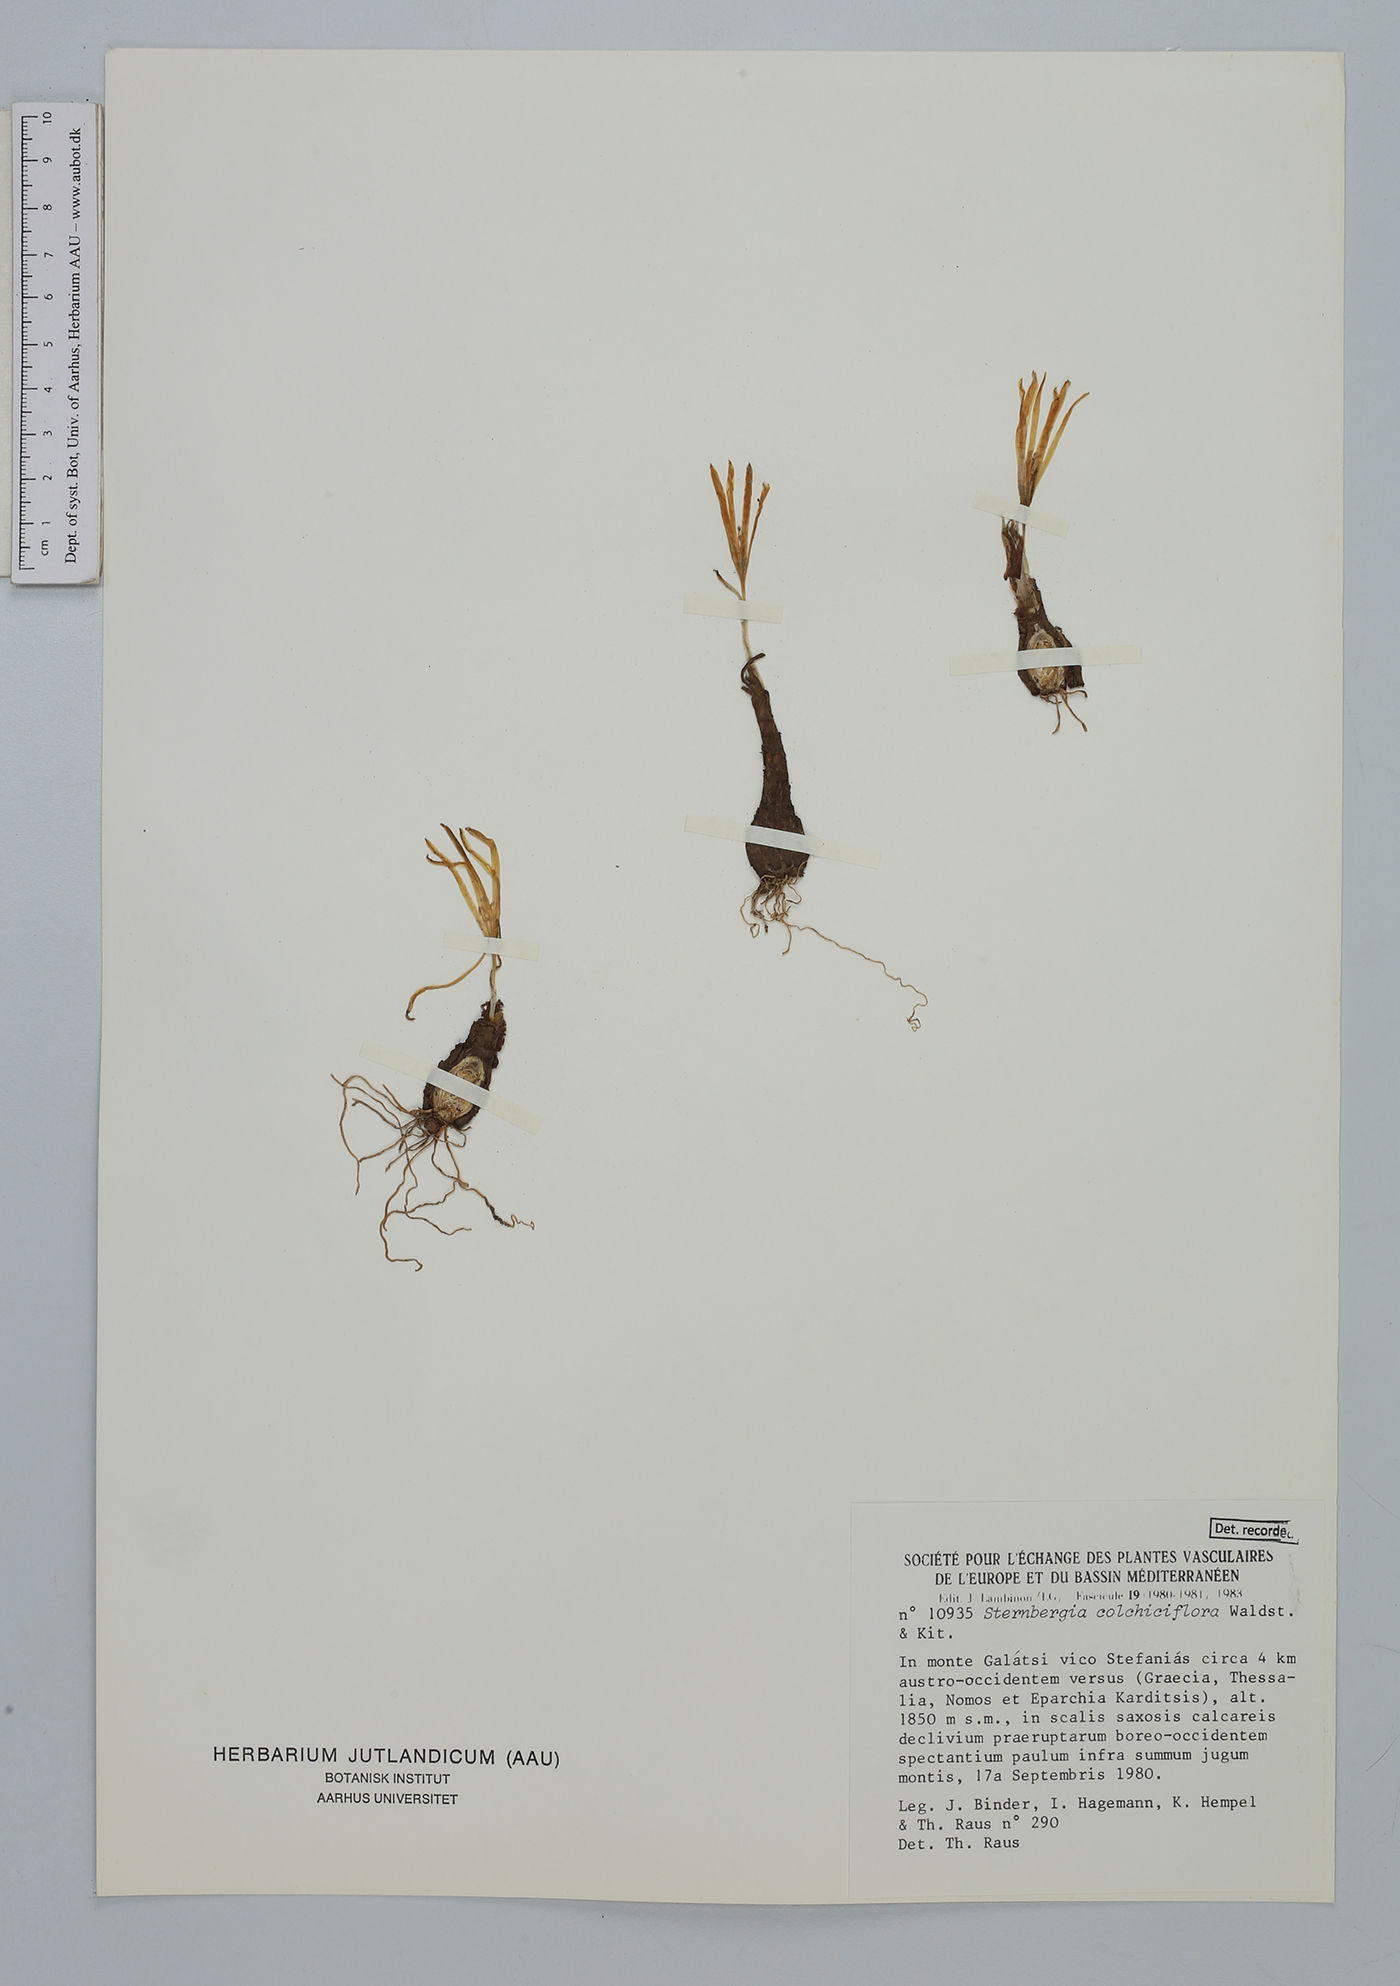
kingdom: Plantae
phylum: Tracheophyta
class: Liliopsida
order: Asparagales
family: Amaryllidaceae
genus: Sternbergia
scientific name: Sternbergia colchiciflora
